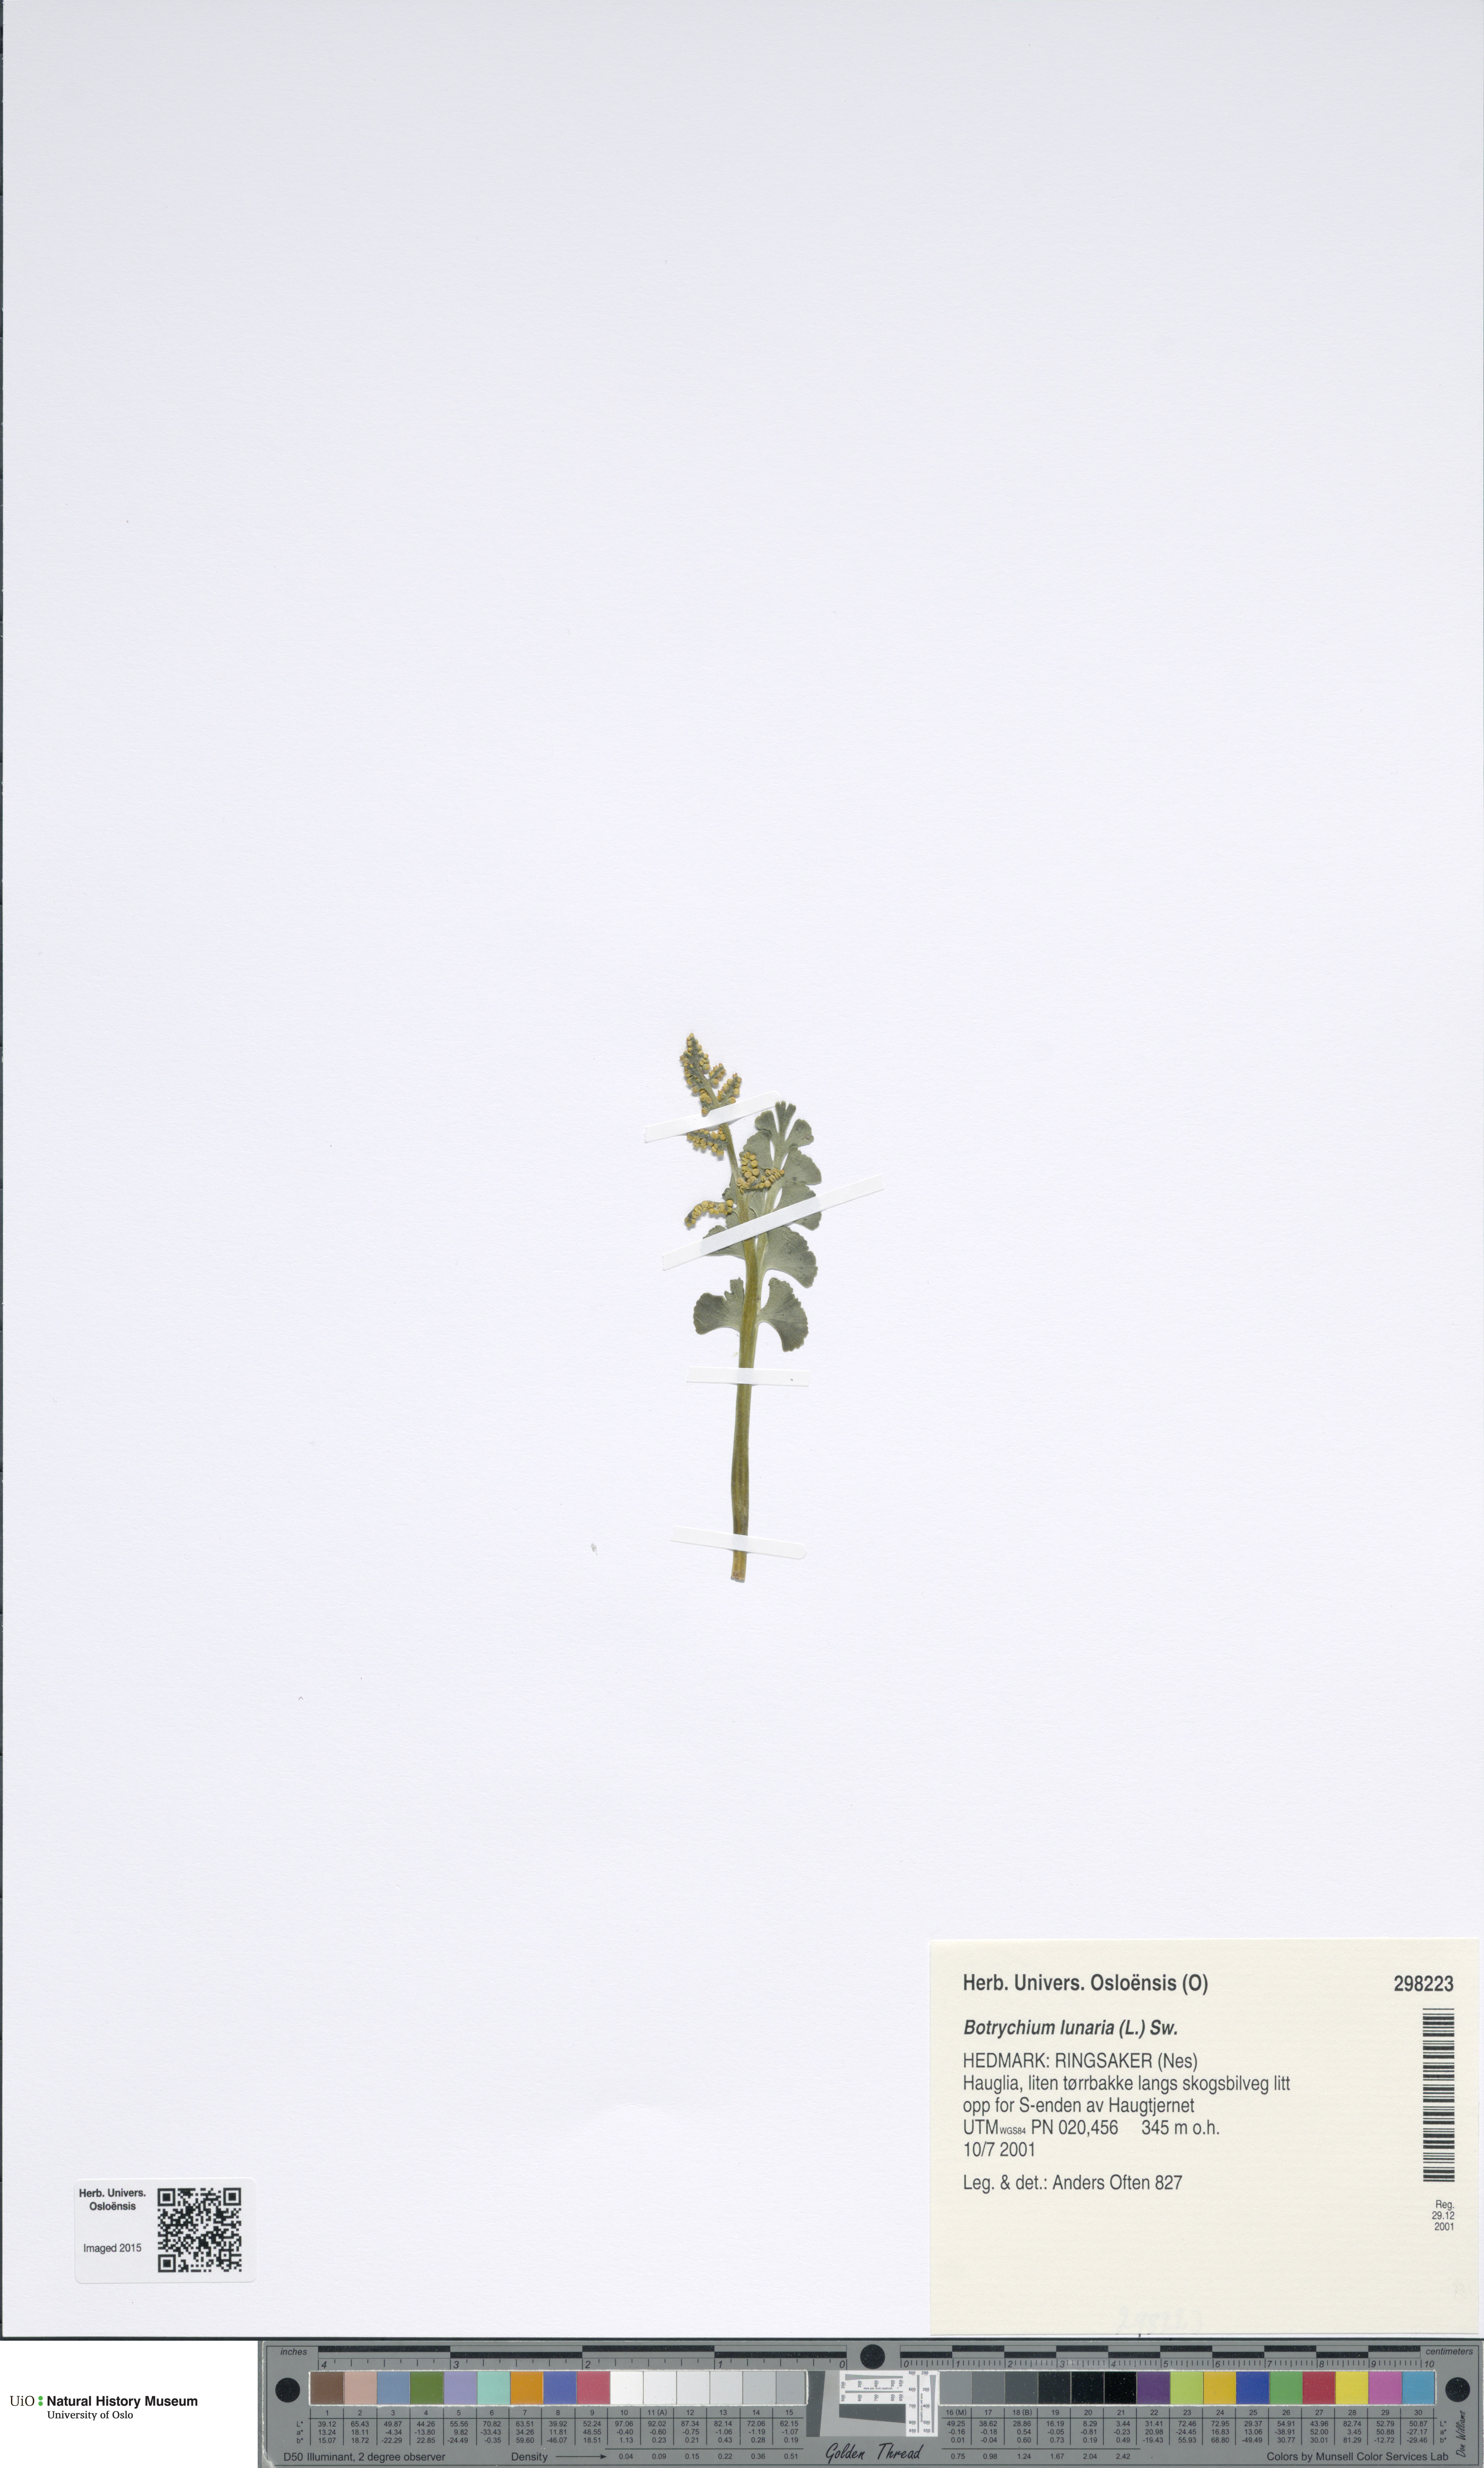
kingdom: Plantae
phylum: Tracheophyta
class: Polypodiopsida
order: Ophioglossales
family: Ophioglossaceae
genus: Botrychium
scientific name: Botrychium lunaria
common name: Moonwort
